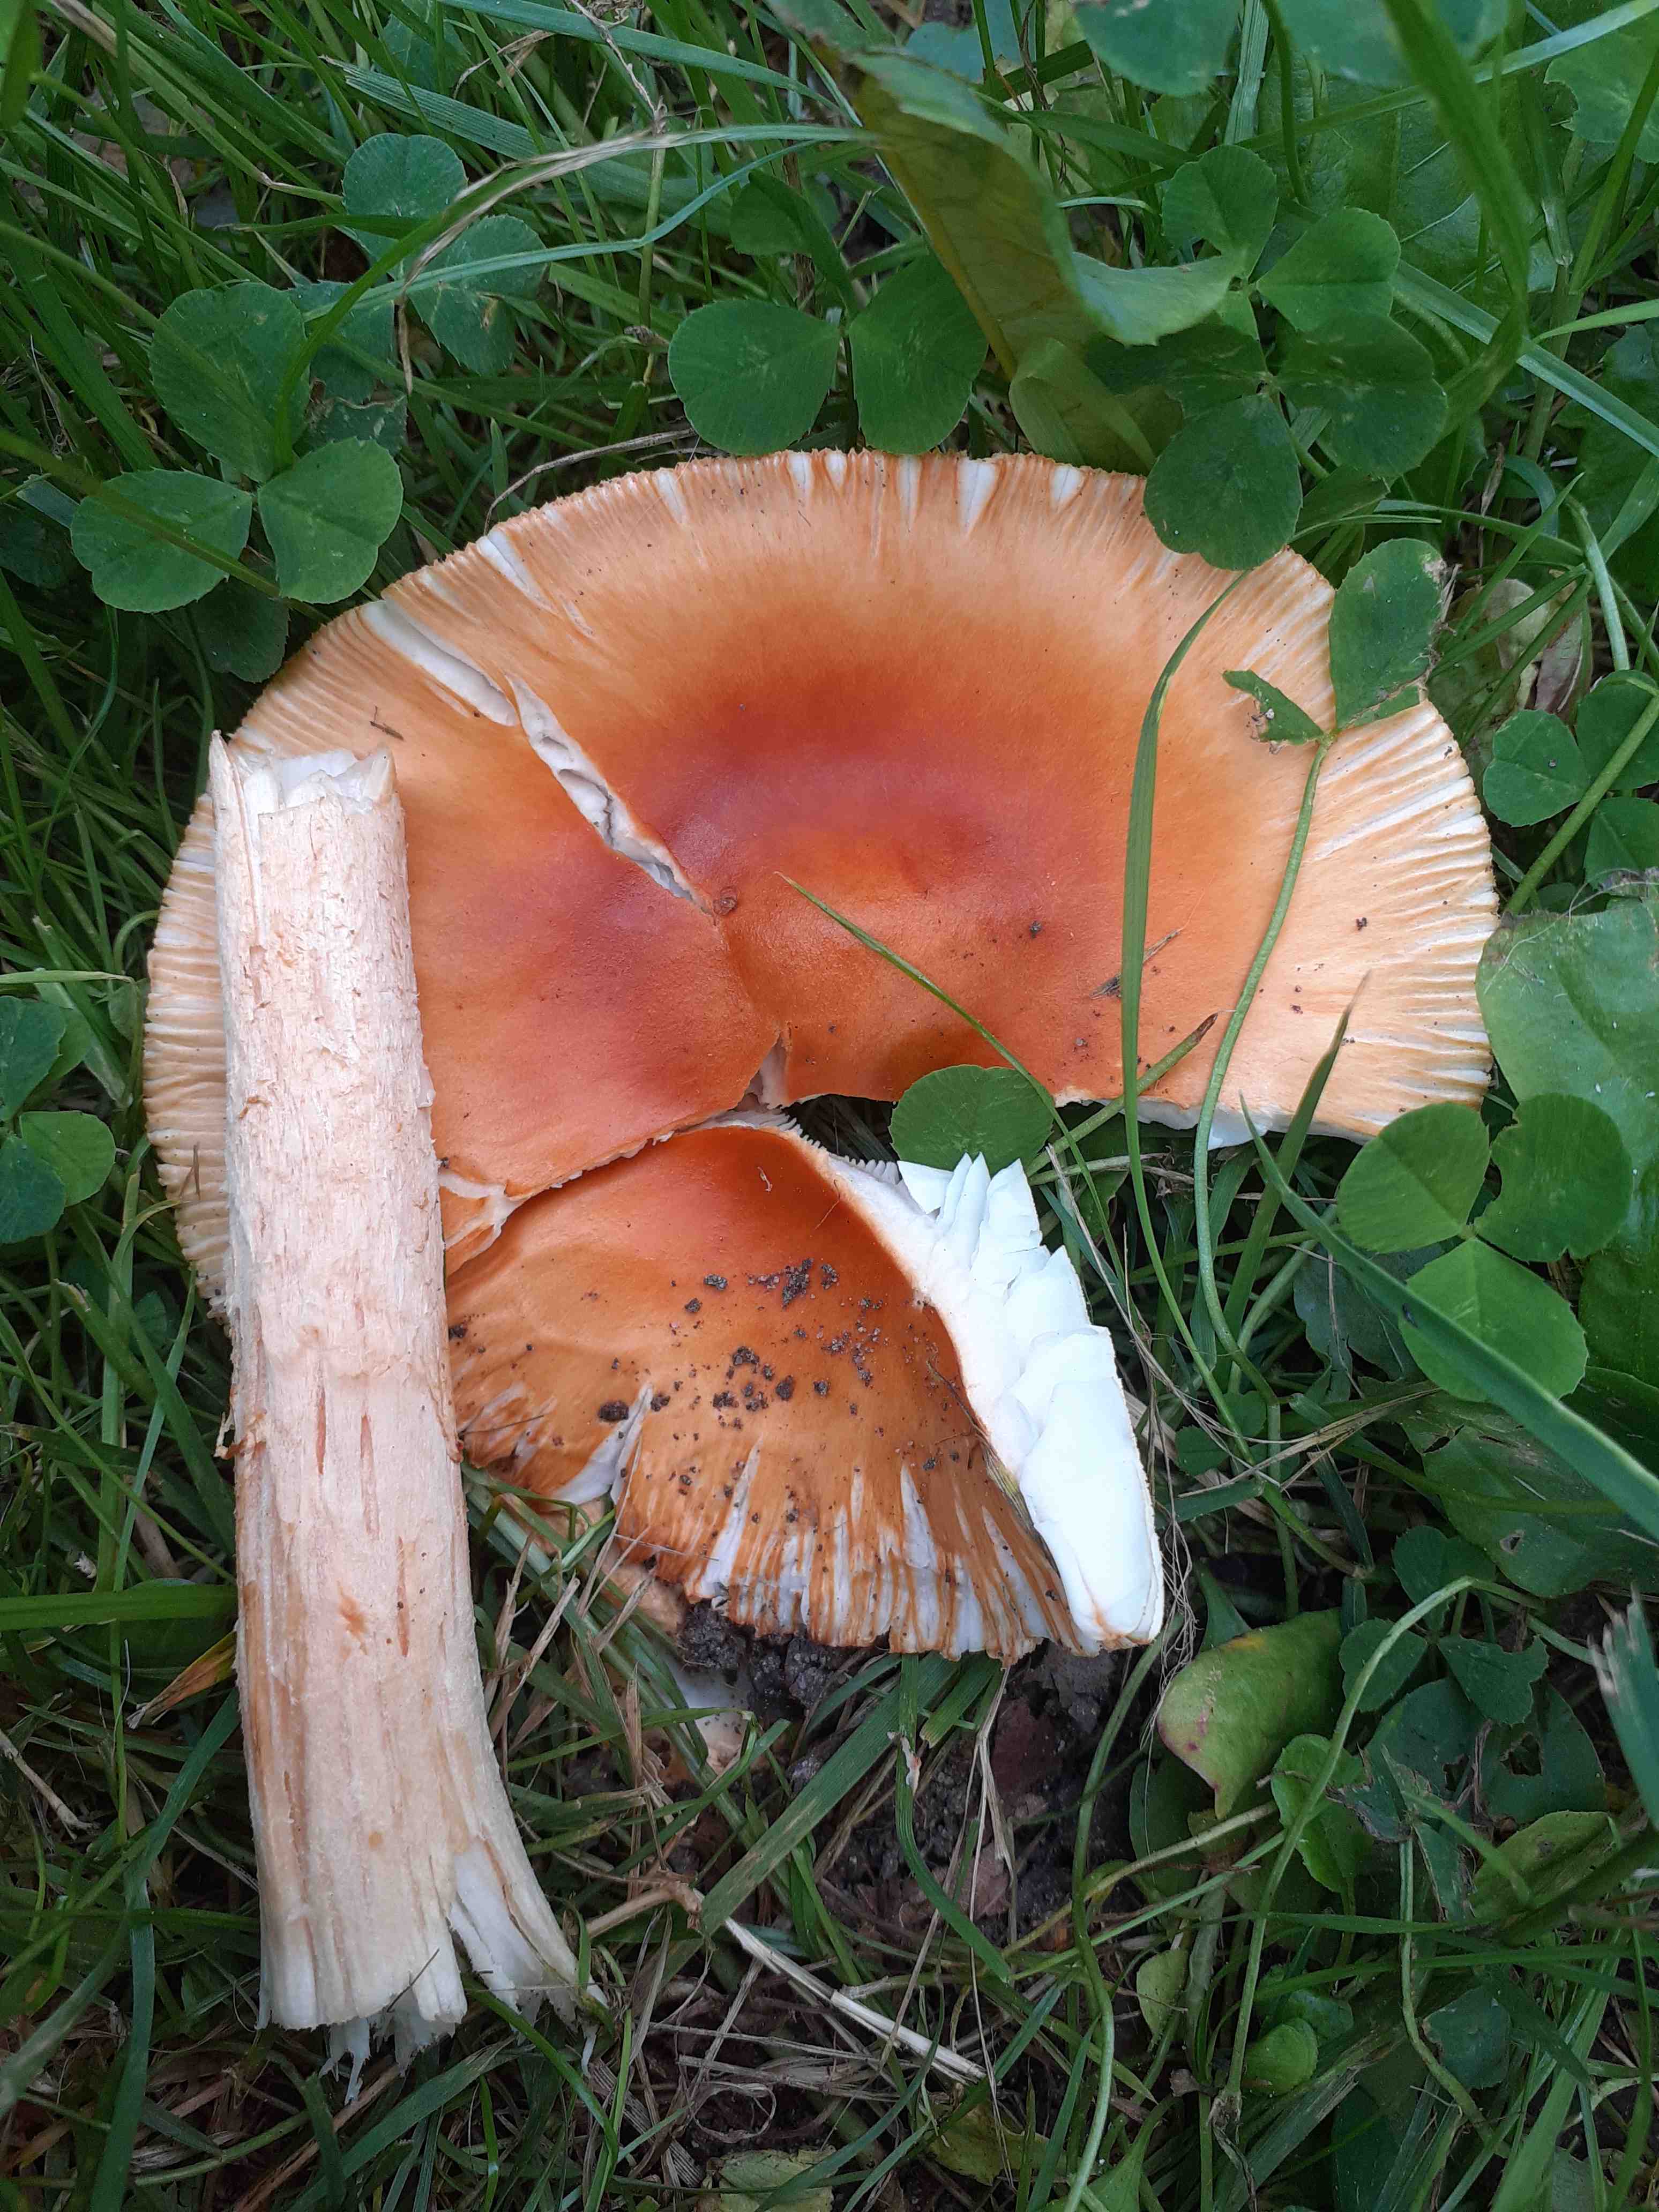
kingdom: Fungi
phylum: Basidiomycota
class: Agaricomycetes
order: Agaricales
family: Amanitaceae
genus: Amanita
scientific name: Amanita crocea
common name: gylden kam-fluesvamp
